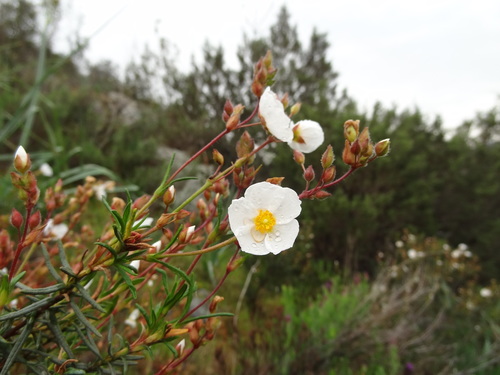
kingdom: Plantae
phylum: Tracheophyta
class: Magnoliopsida
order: Malvales
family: Cistaceae
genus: Halimium
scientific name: Halimium umbellatum
